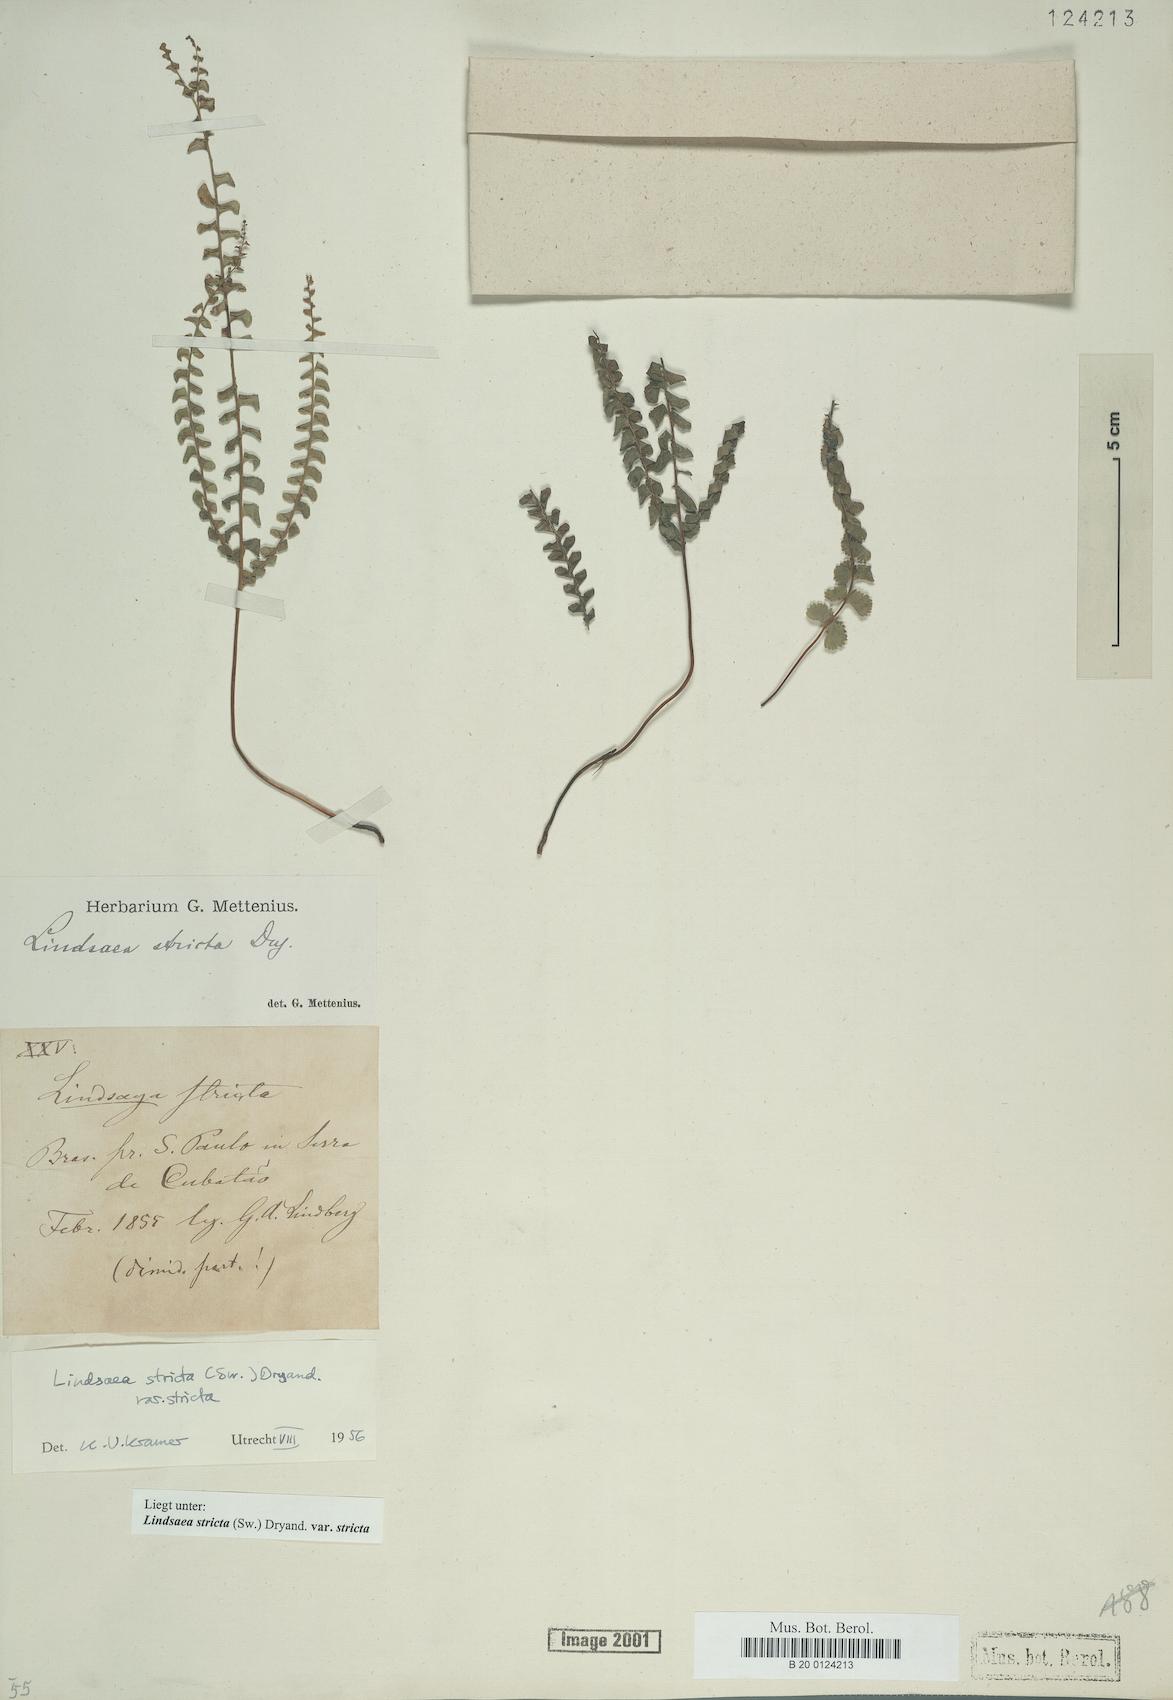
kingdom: Plantae
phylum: Tracheophyta
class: Polypodiopsida
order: Polypodiales
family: Lindsaeaceae
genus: Lindsaea
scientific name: Lindsaea stricta
